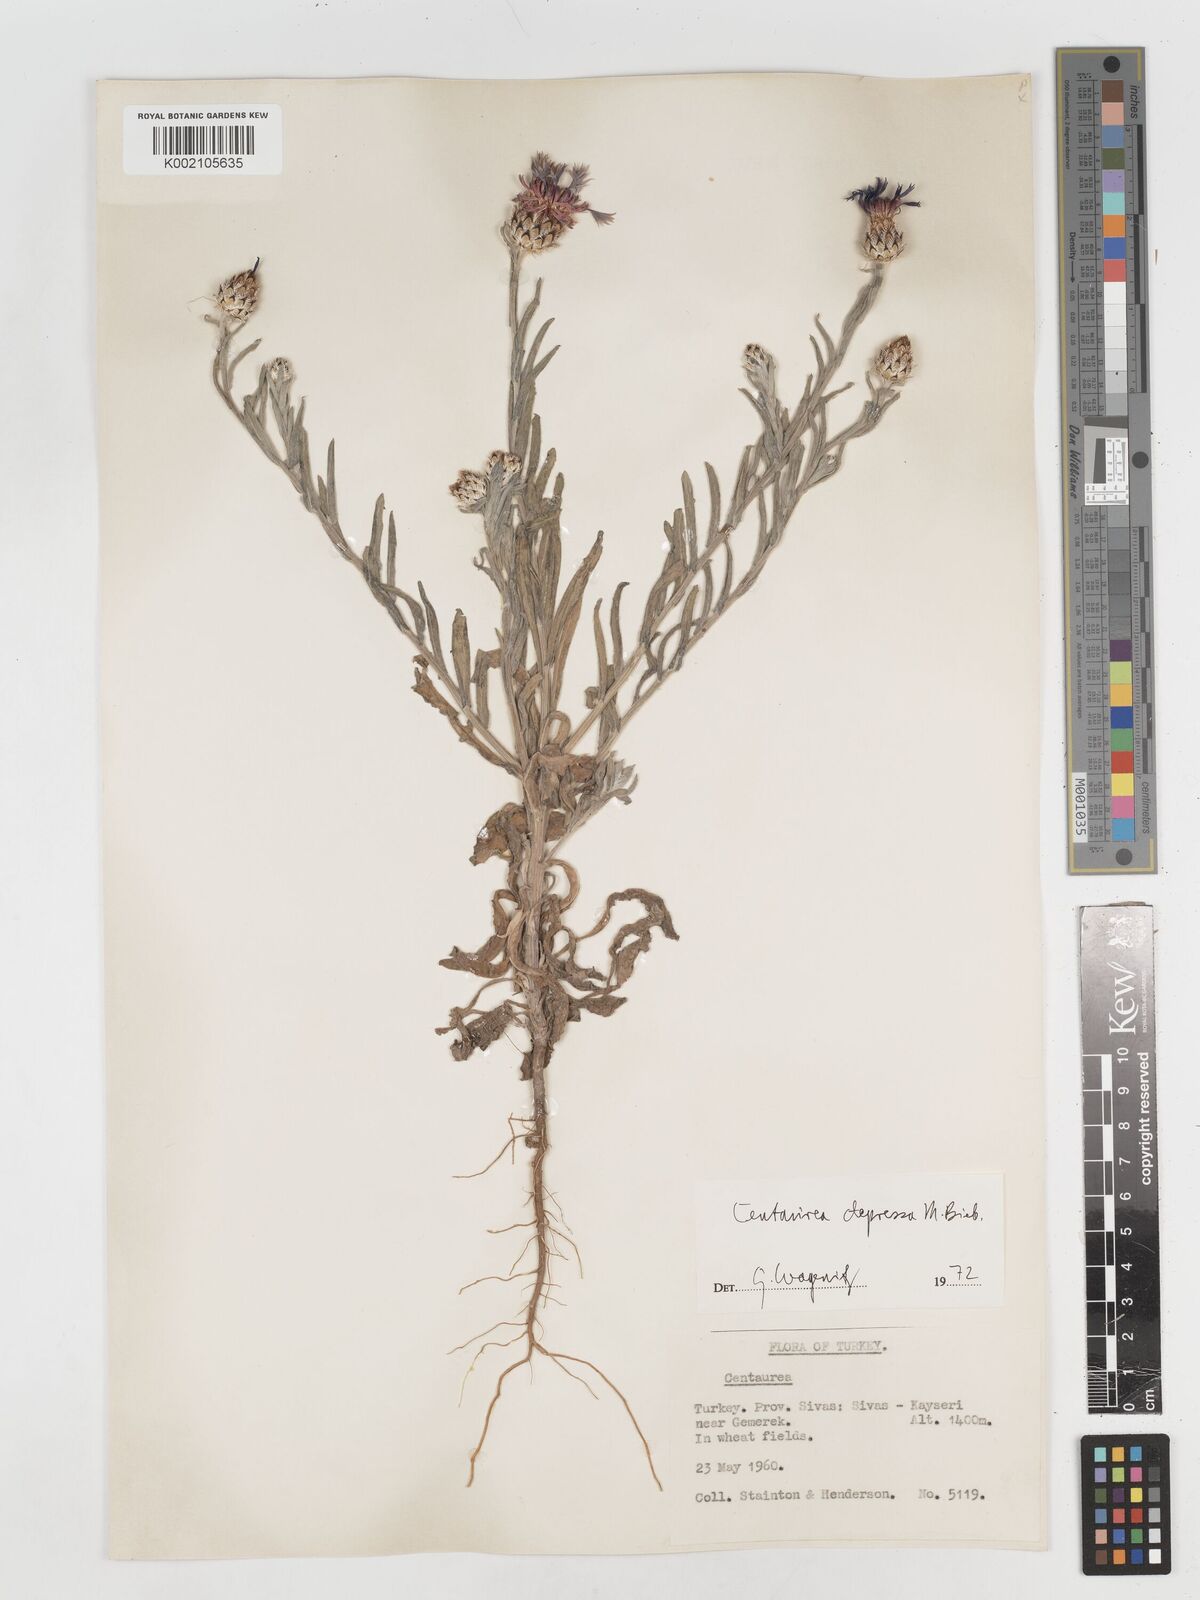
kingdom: Plantae
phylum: Tracheophyta
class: Magnoliopsida
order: Asterales
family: Asteraceae
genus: Centaurea
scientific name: Centaurea depressa
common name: Iranian knapweed
